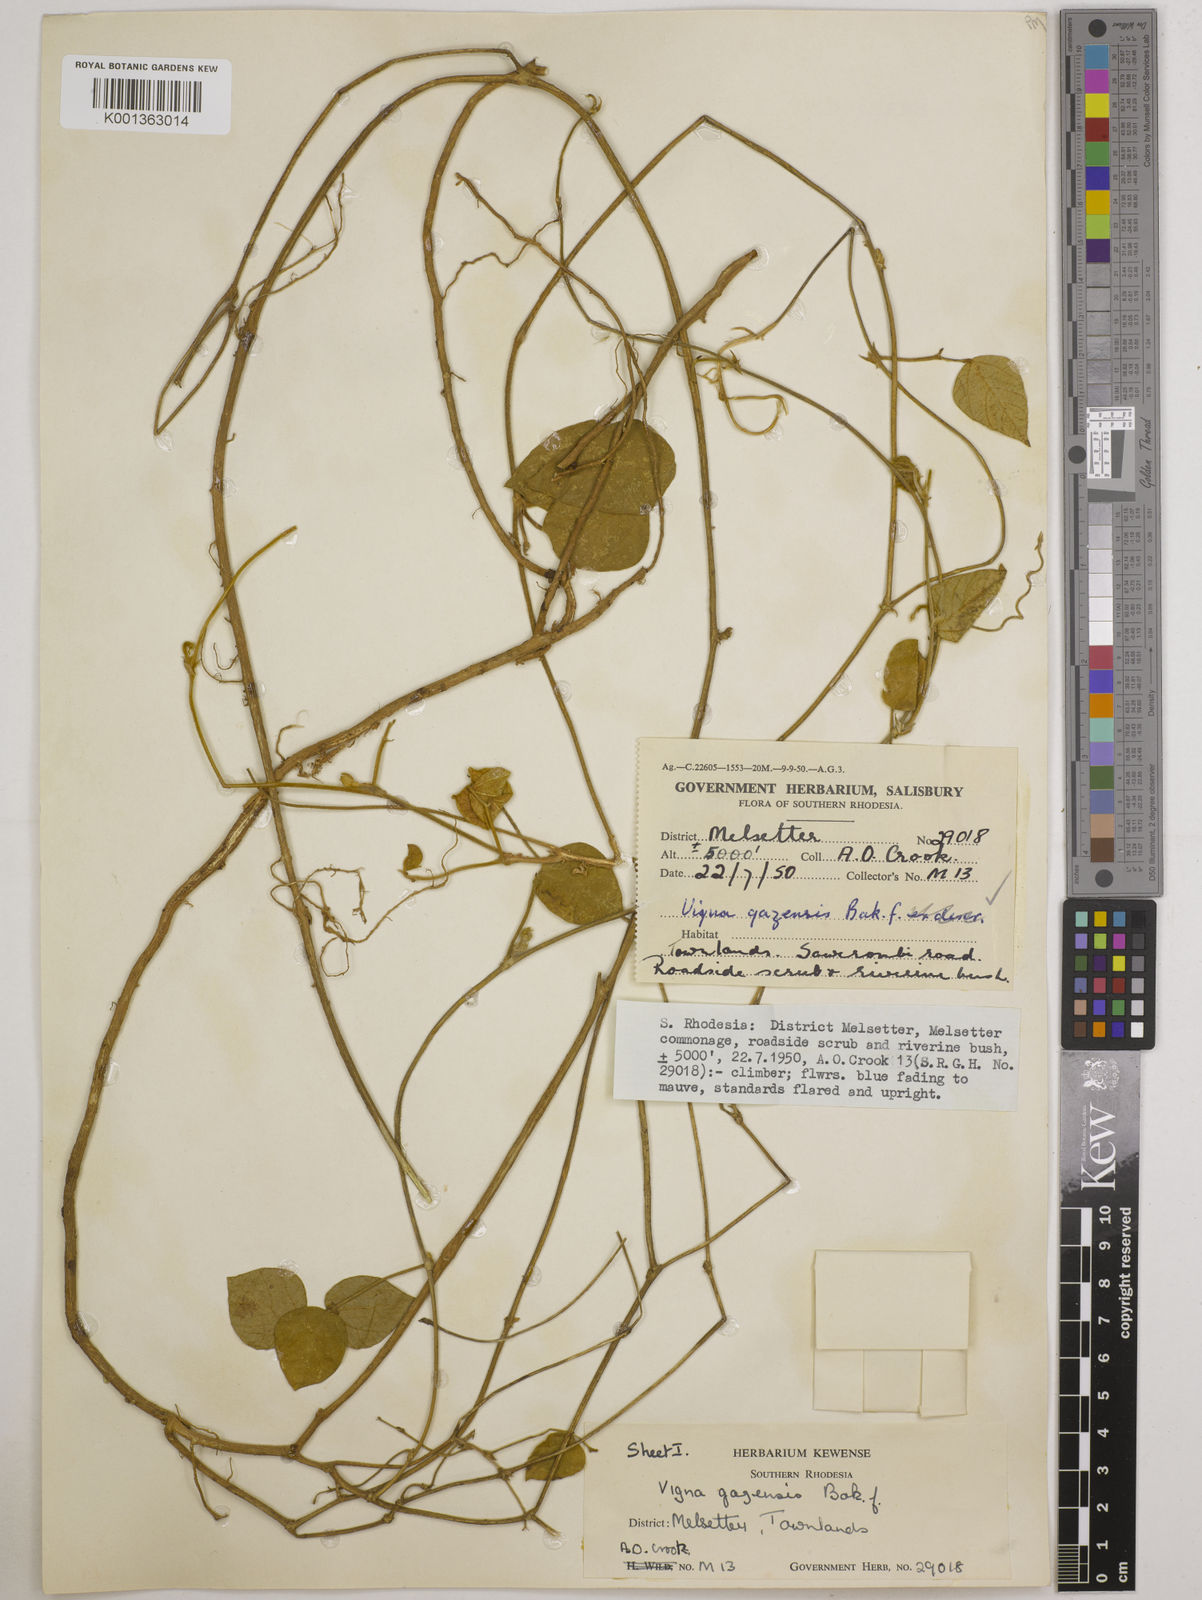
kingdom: Plantae
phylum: Tracheophyta
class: Magnoliopsida
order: Fabales
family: Fabaceae
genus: Vigna
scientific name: Vigna gazensis
